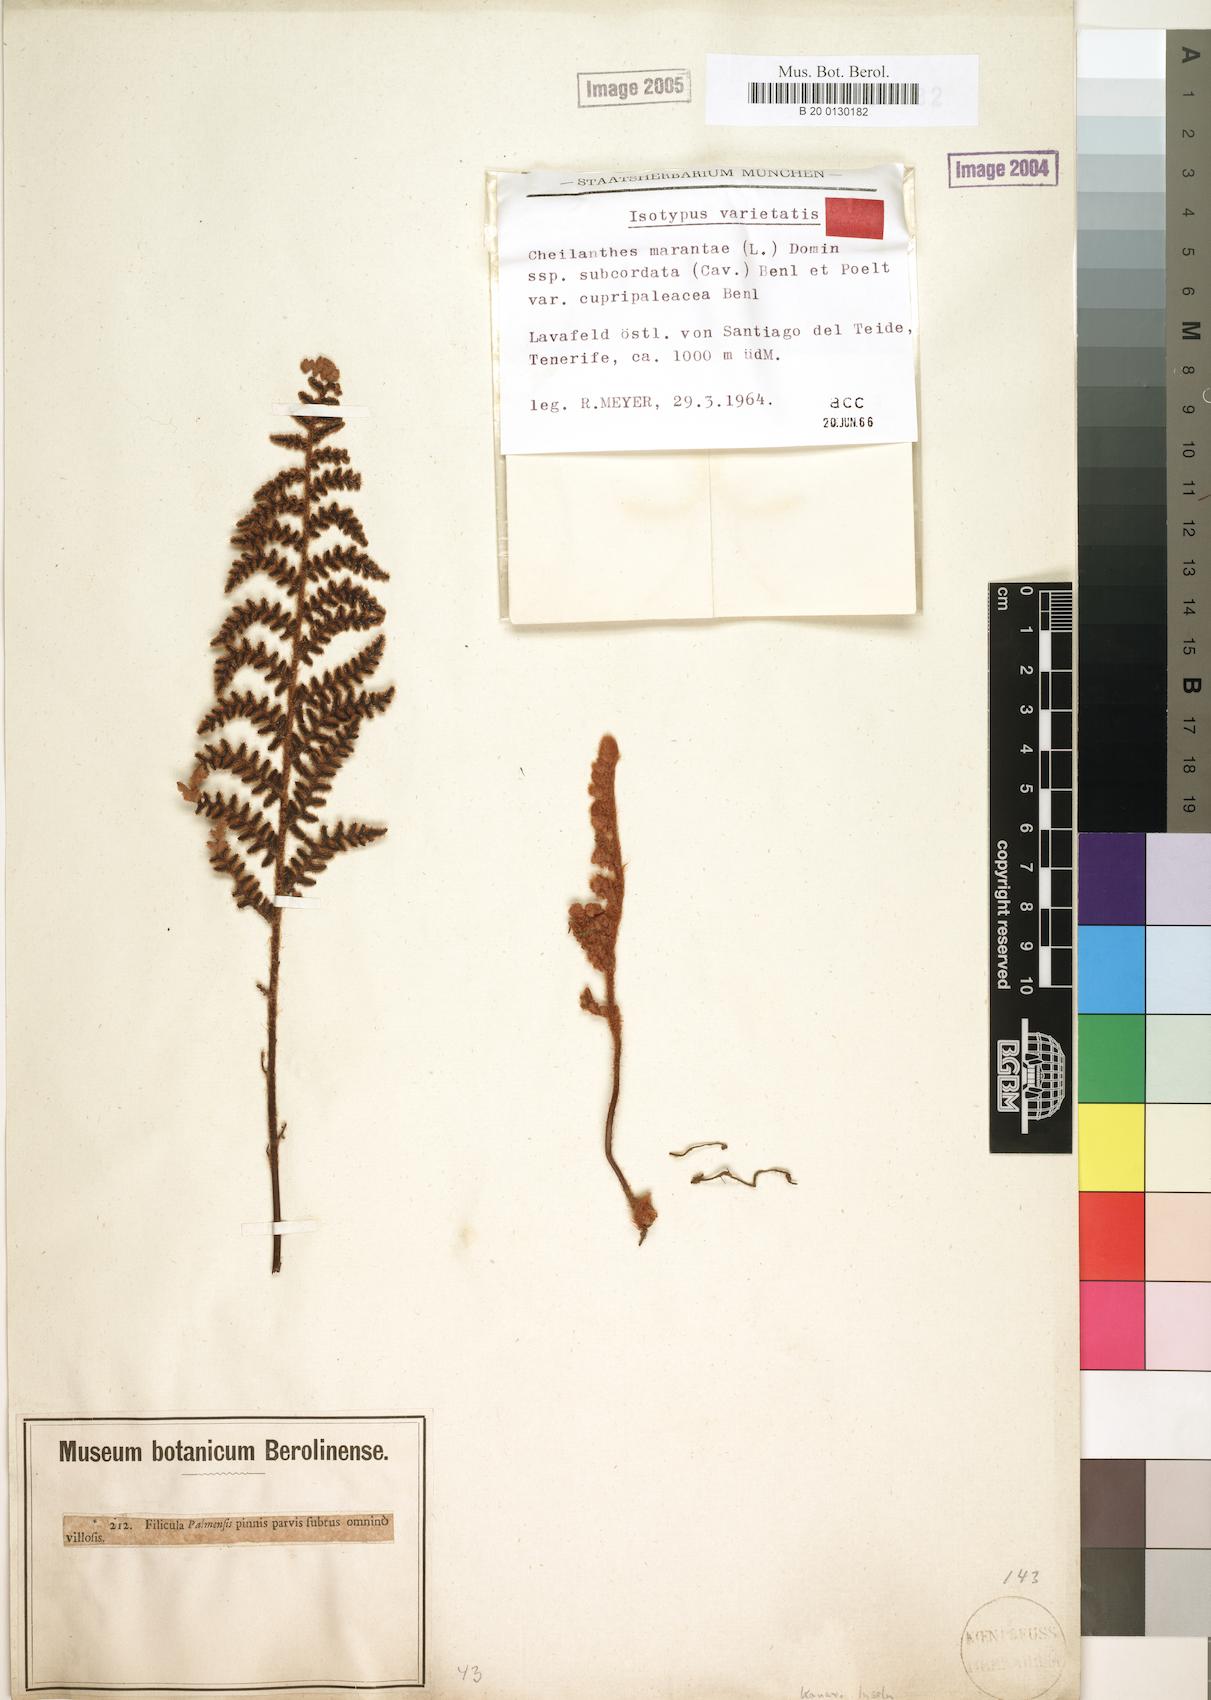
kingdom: Plantae
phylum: Tracheophyta
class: Polypodiopsida
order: Polypodiales
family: Pteridaceae
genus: Paragymnopteris
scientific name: Paragymnopteris marantae
